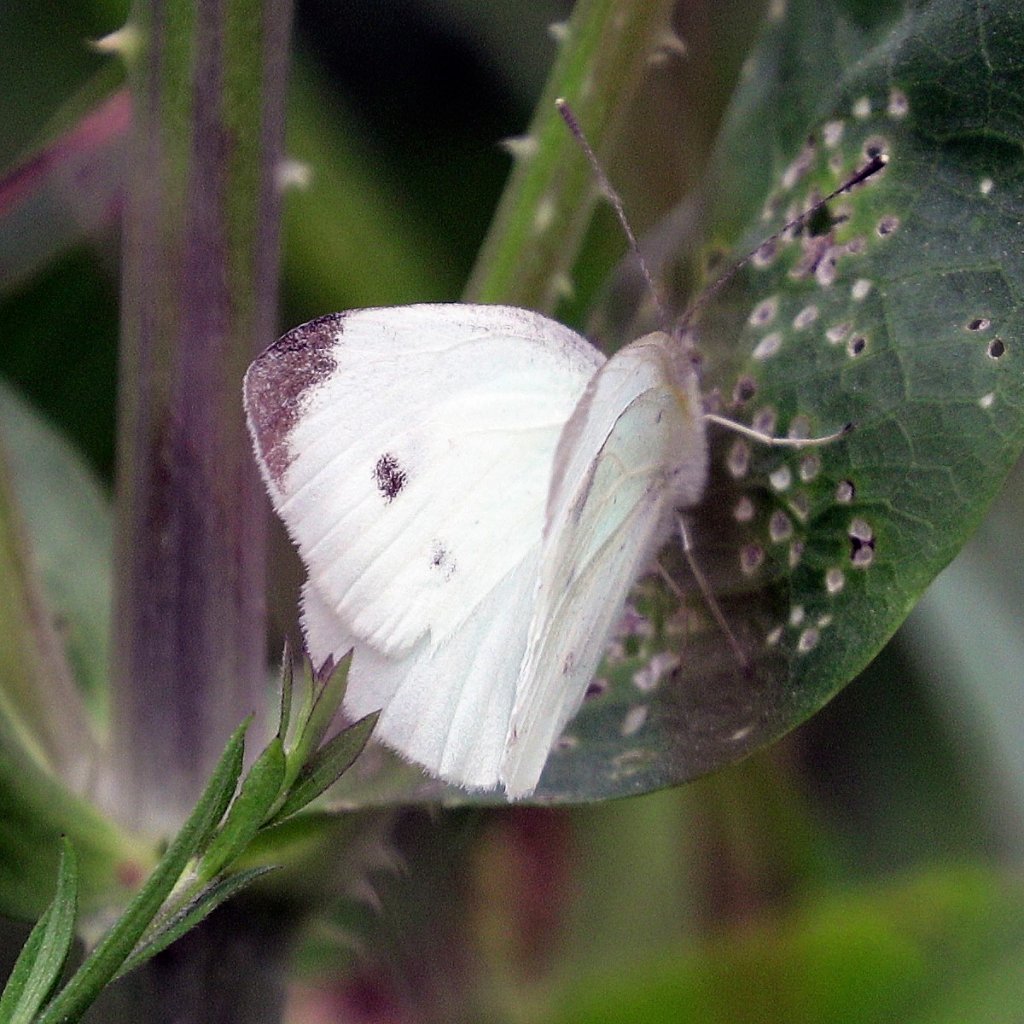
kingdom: Animalia
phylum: Arthropoda
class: Insecta
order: Lepidoptera
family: Pieridae
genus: Pieris
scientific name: Pieris rapae
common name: Cabbage White
